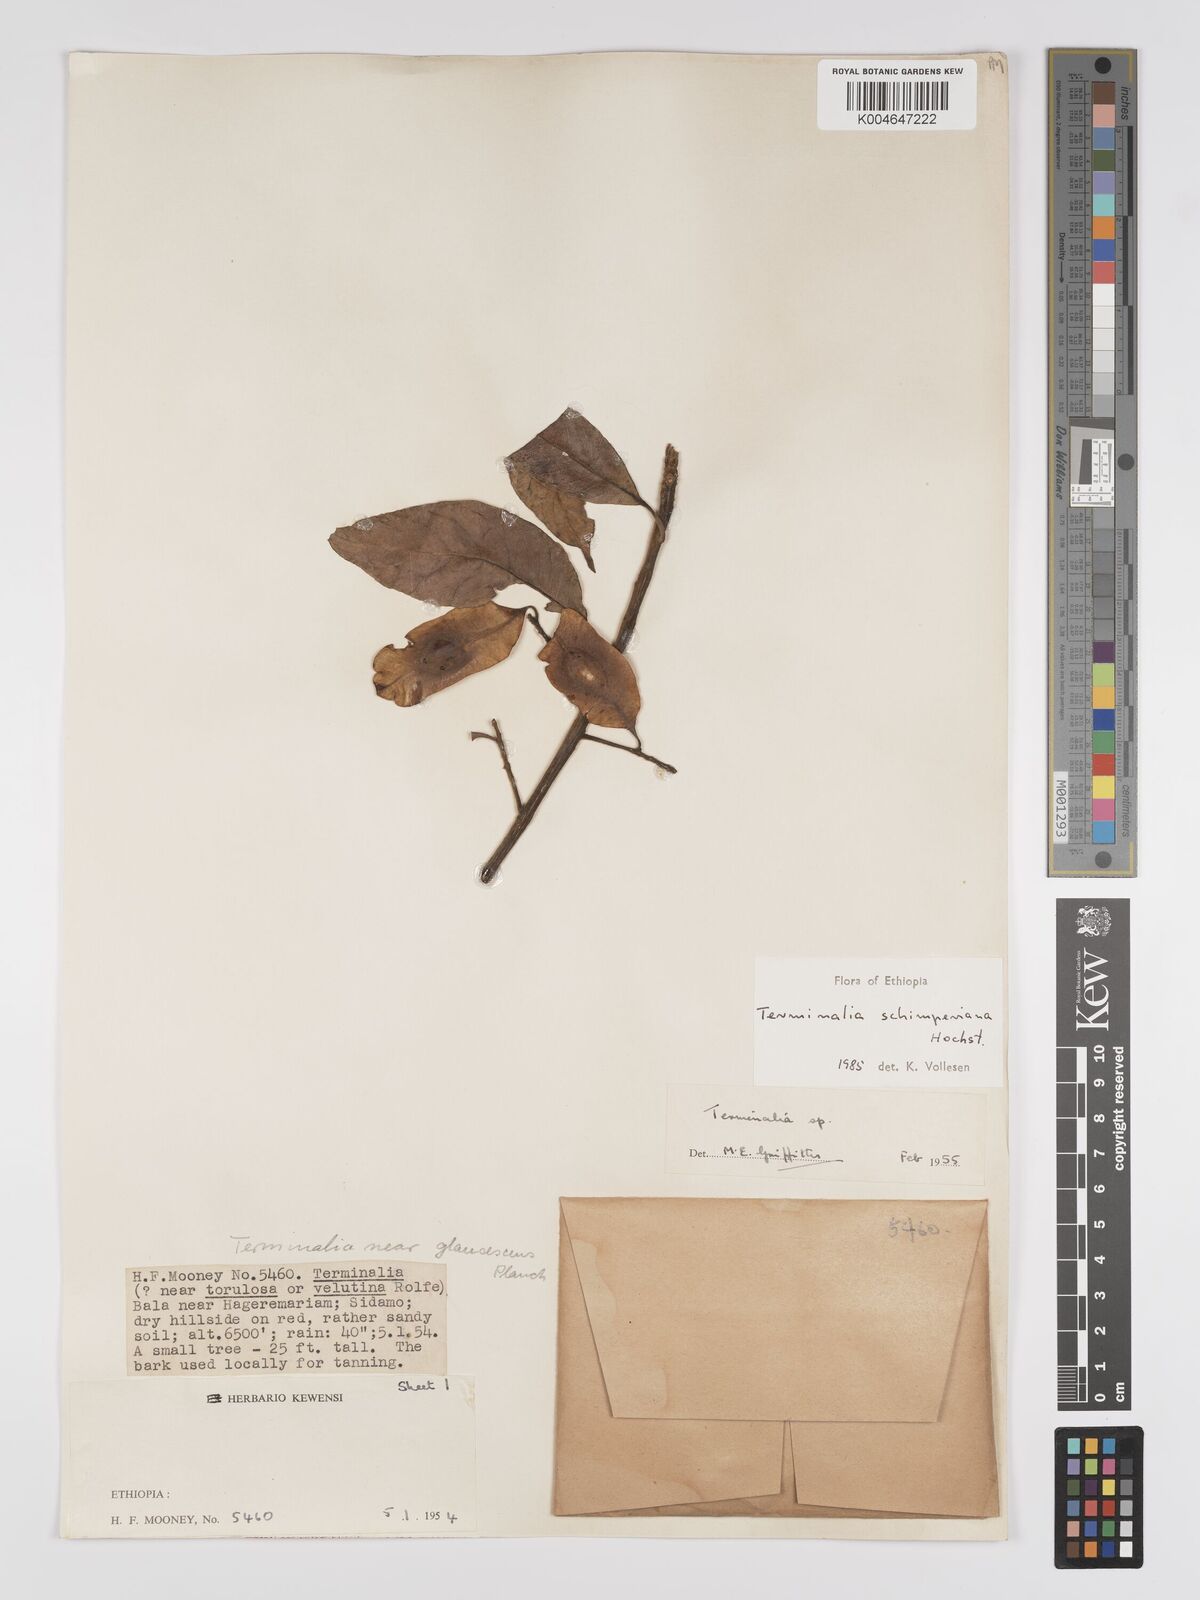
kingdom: Plantae
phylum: Tracheophyta
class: Magnoliopsida
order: Myrtales
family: Combretaceae
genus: Terminalia
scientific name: Terminalia schimperiana
